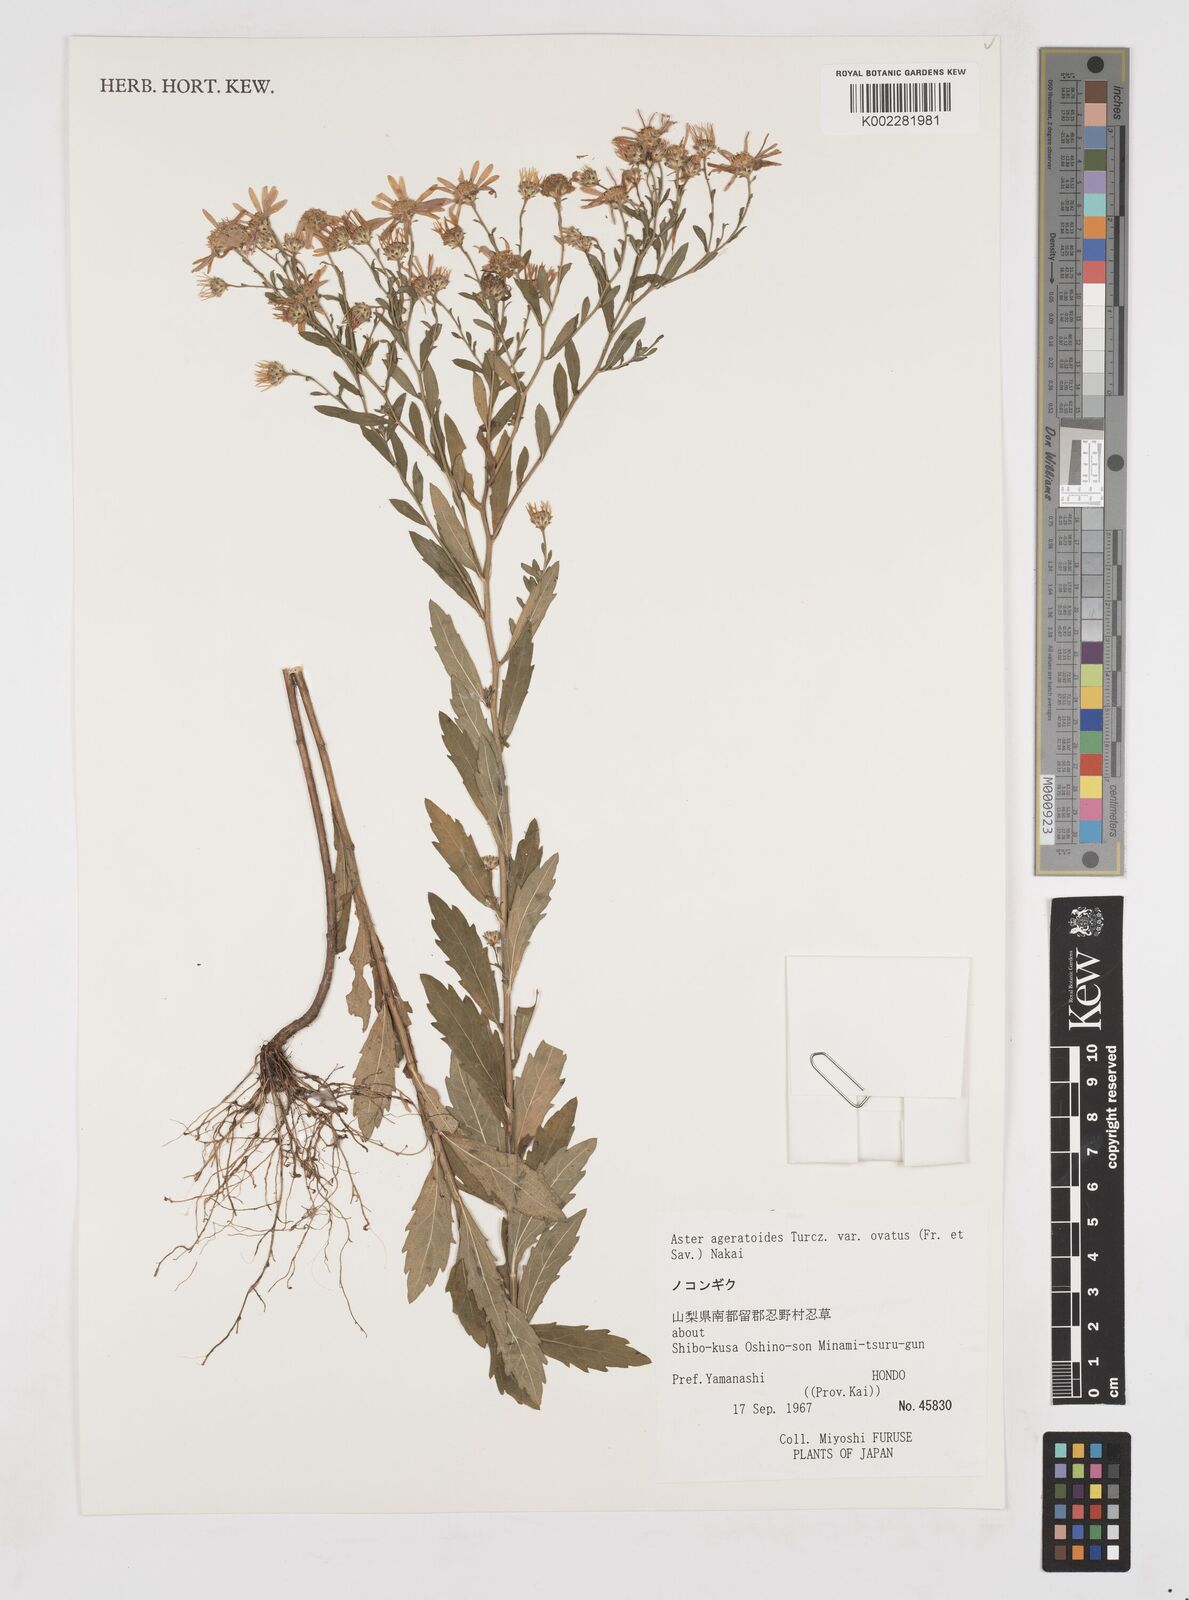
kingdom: Plantae
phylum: Tracheophyta
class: Magnoliopsida
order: Asterales
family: Asteraceae
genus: Aster
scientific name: Aster trinervius
